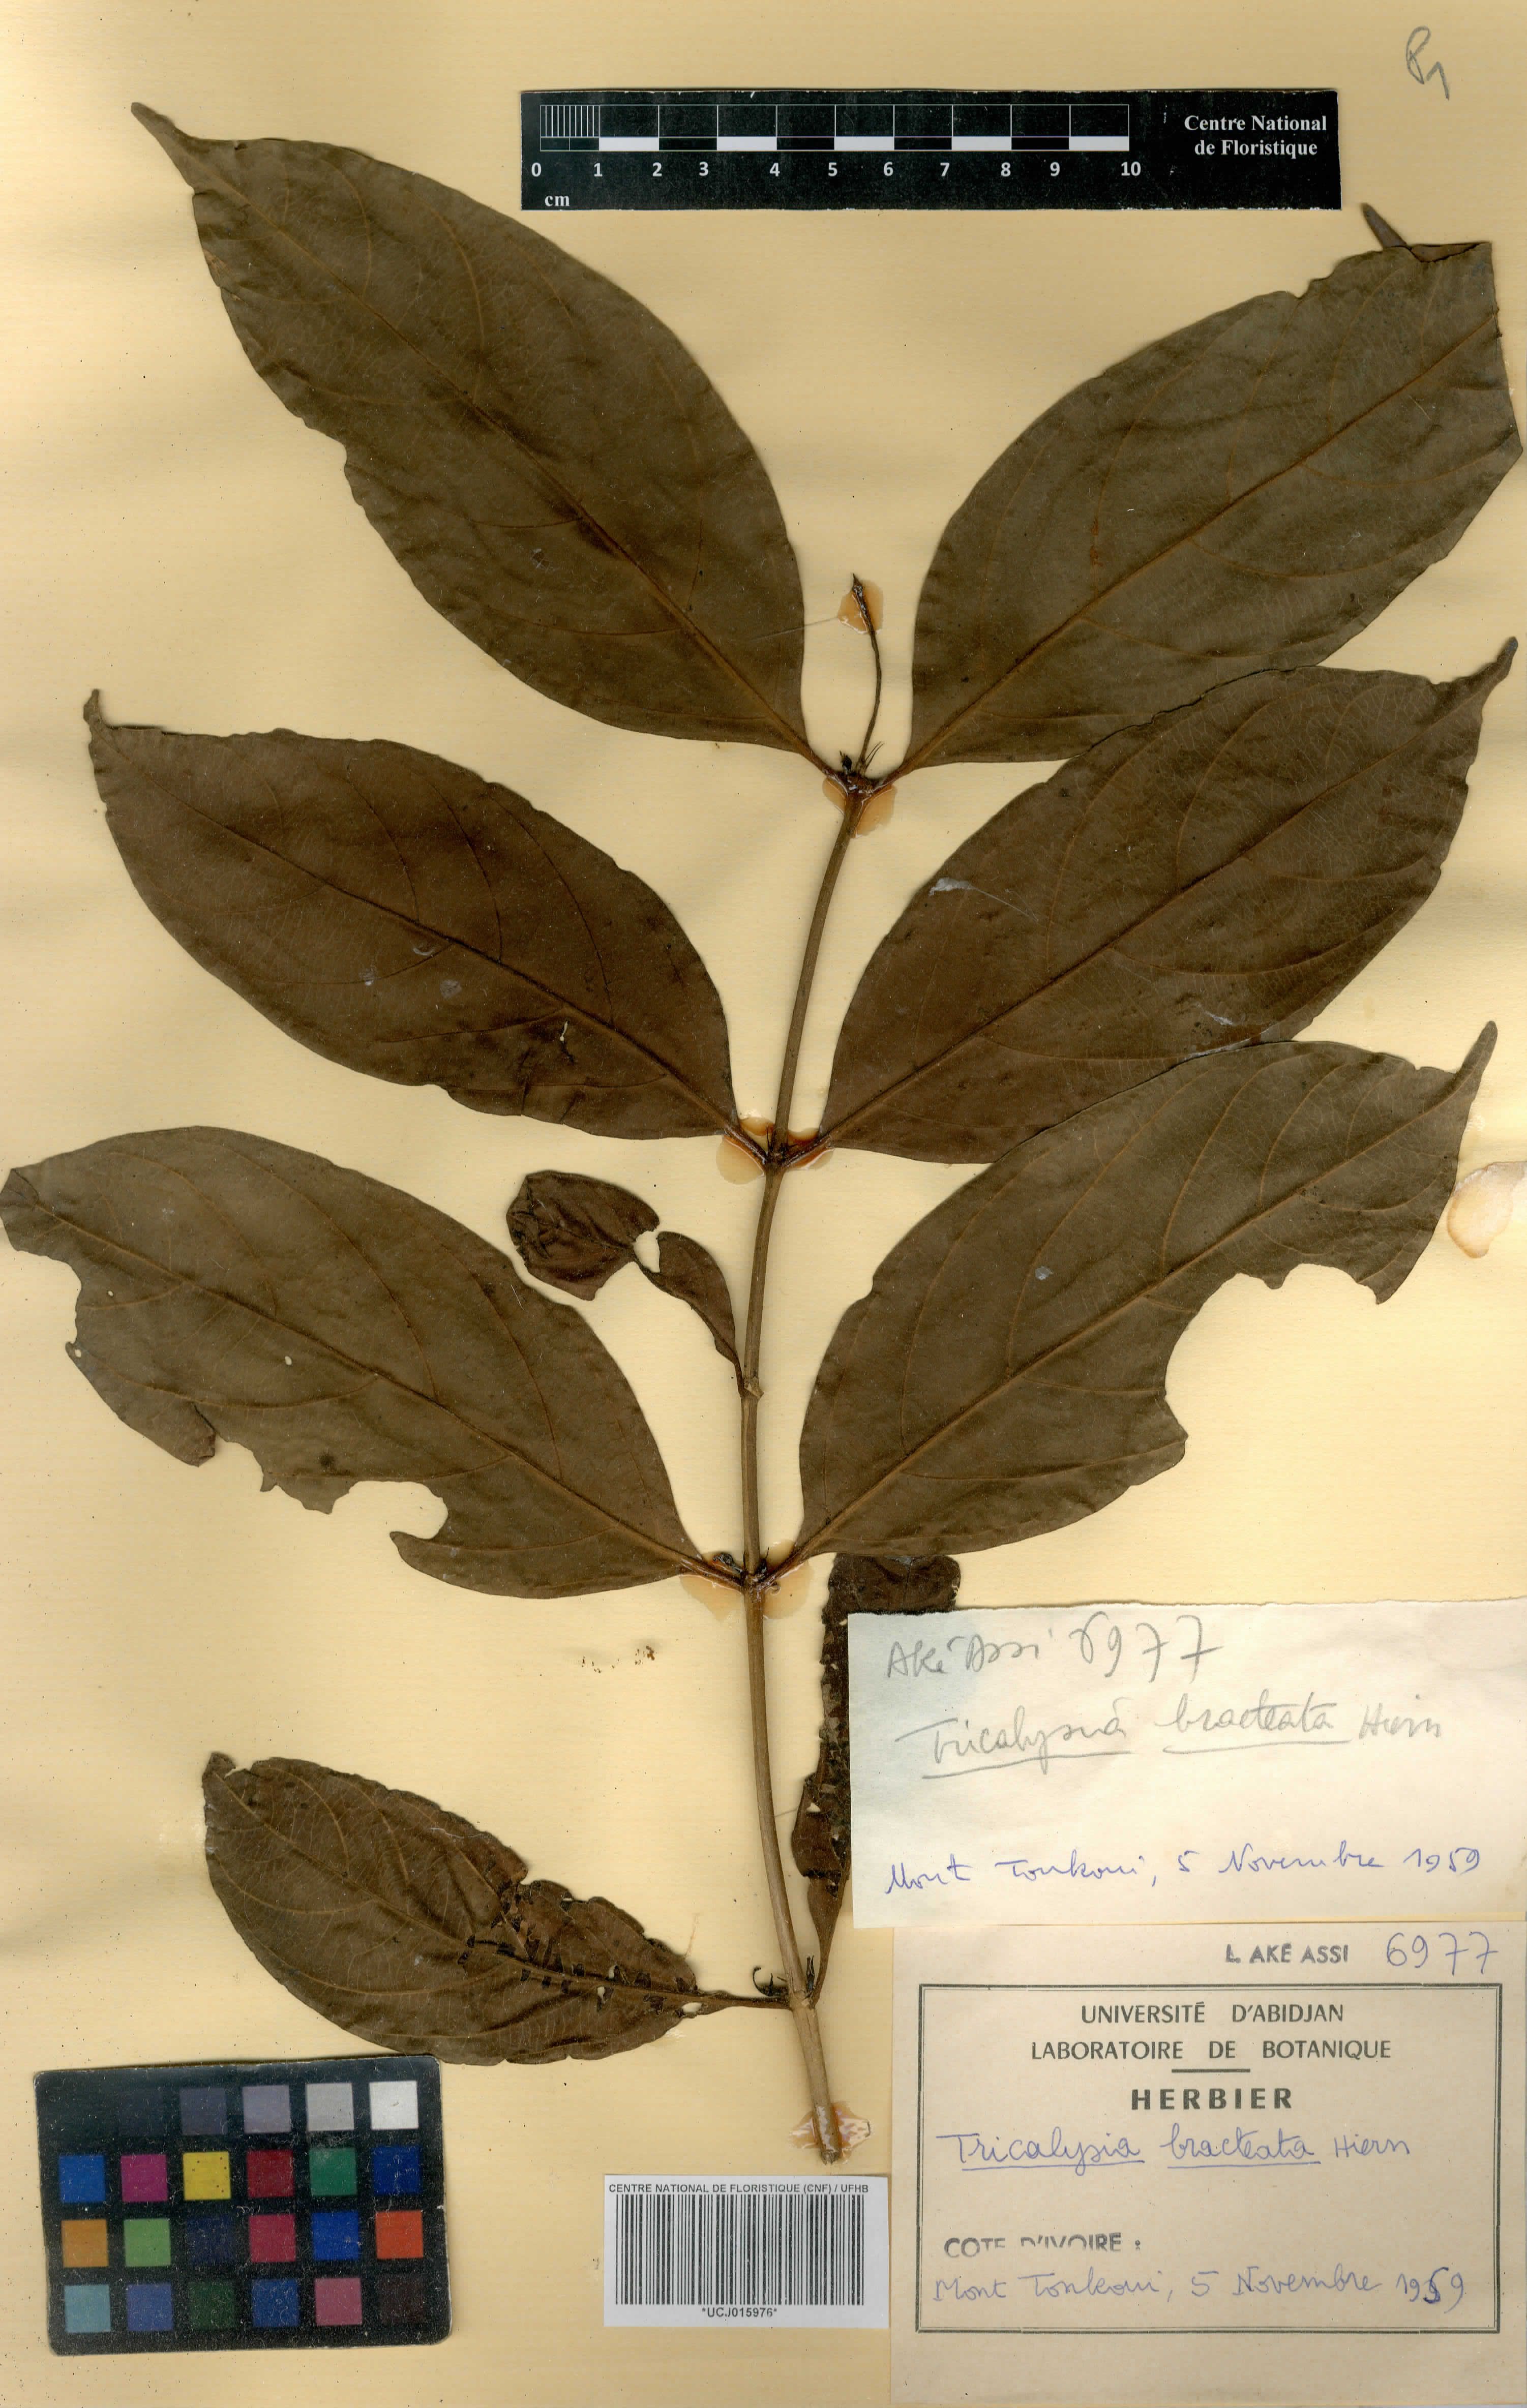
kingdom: Plantae
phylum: Tracheophyta
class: Magnoliopsida
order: Gentianales
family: Rubiaceae
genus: Empogona
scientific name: Empogona bracteata
